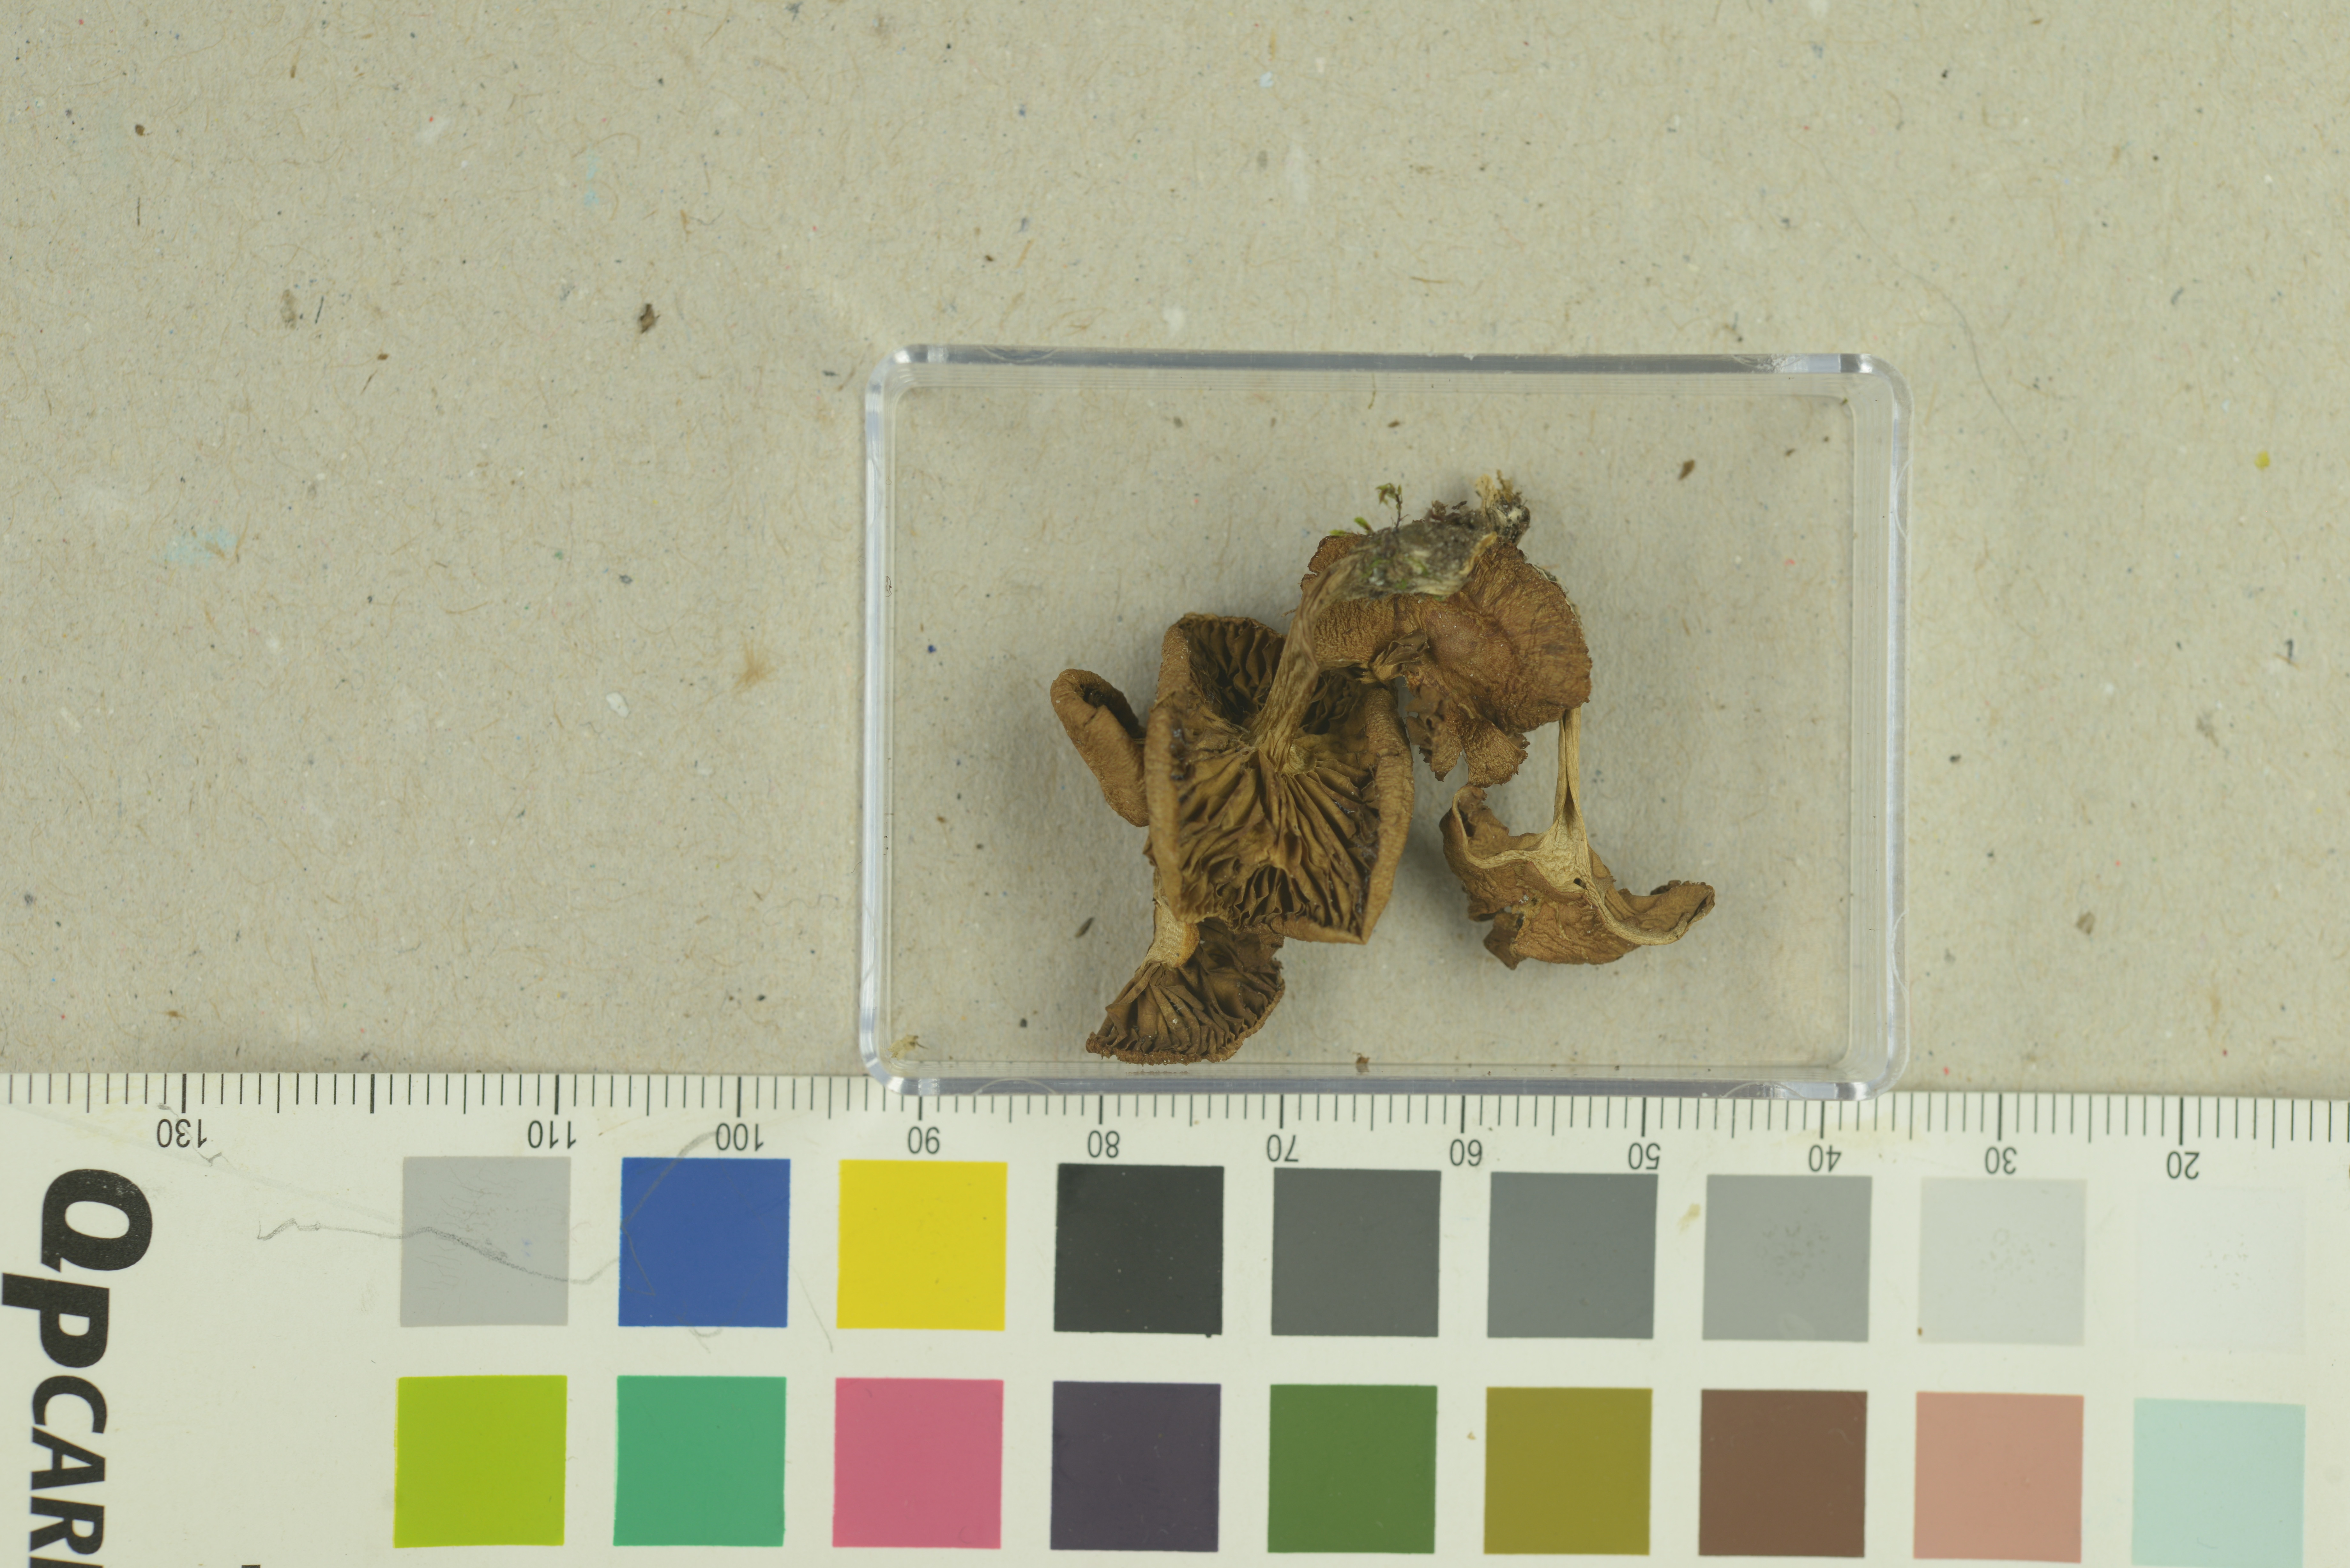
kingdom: Fungi
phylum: Basidiomycota
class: Agaricomycetes
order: Agaricales
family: Inocybaceae
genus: Mallocybe
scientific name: Mallocybe leucoloma
